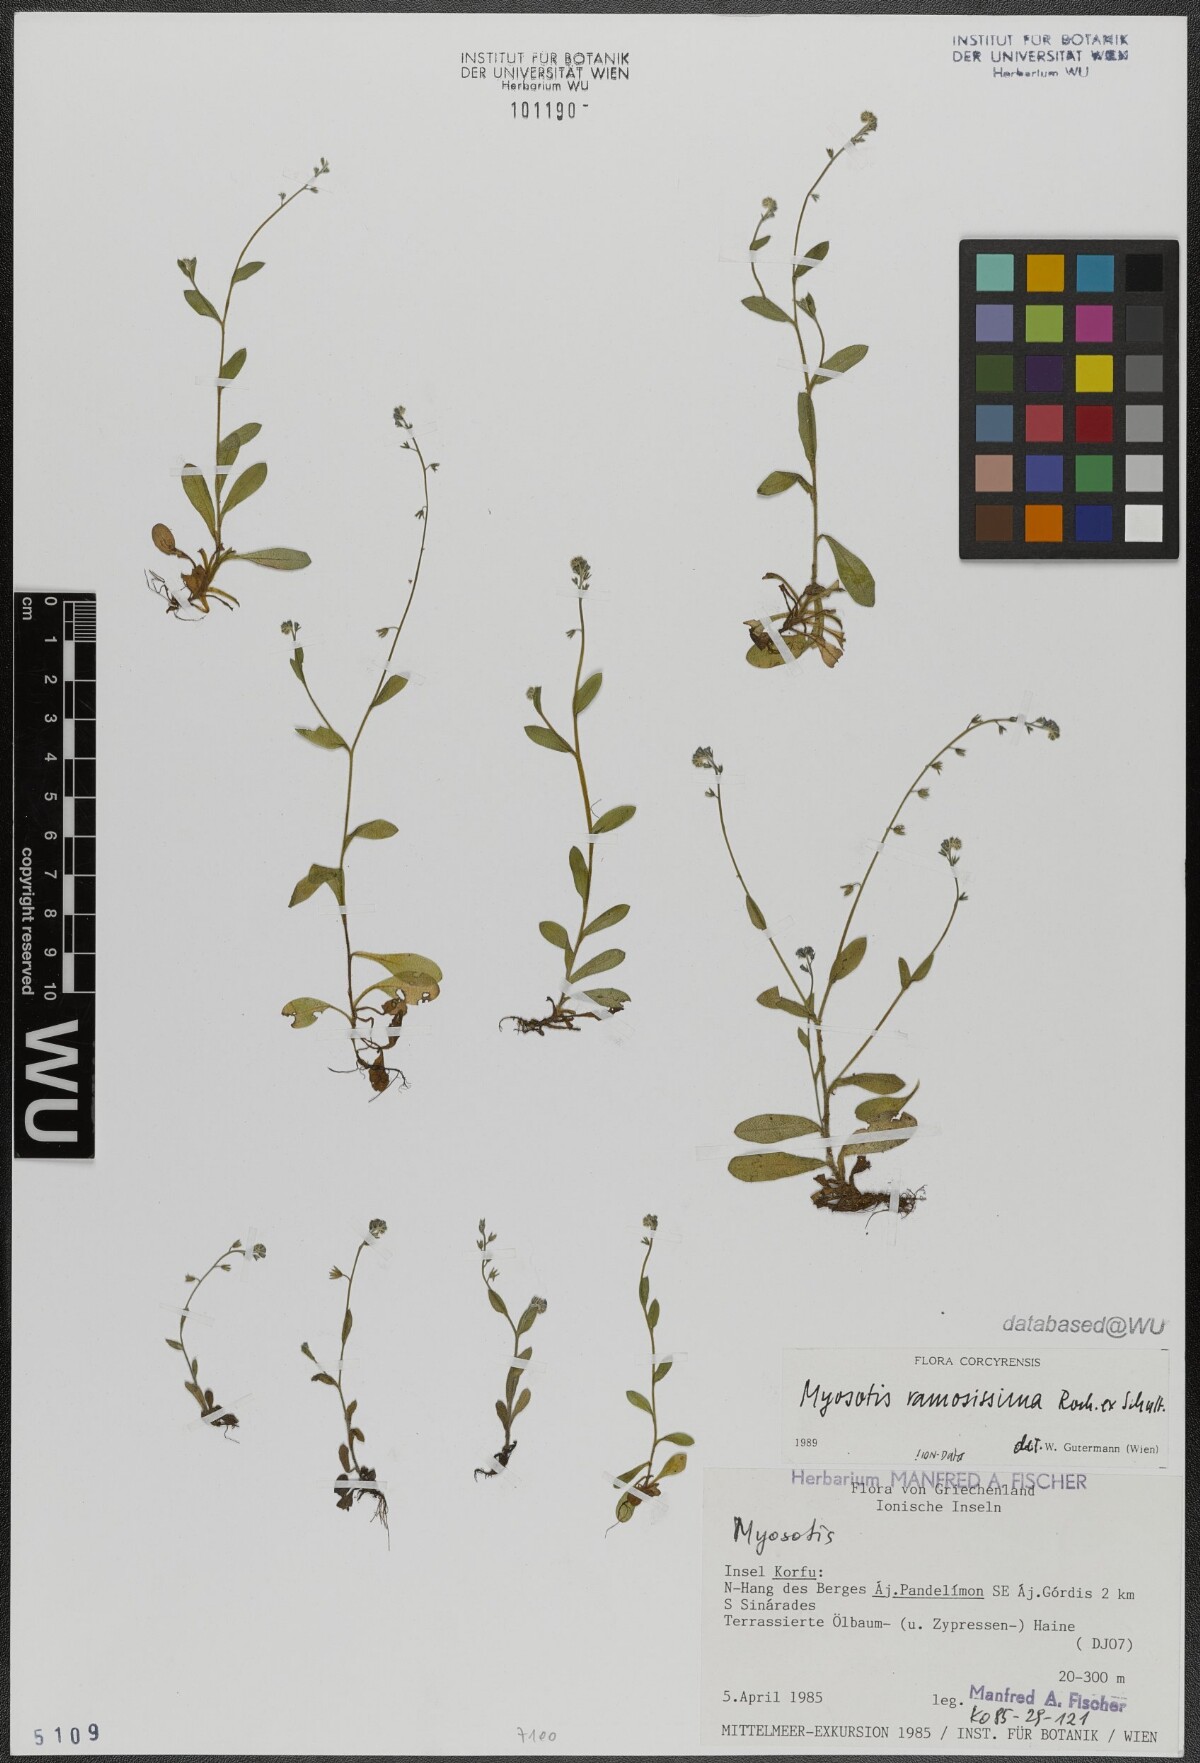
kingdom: Plantae
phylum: Tracheophyta
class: Magnoliopsida
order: Boraginales
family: Boraginaceae
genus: Myosotis
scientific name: Myosotis ramosissima
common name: Early forget-me-not
